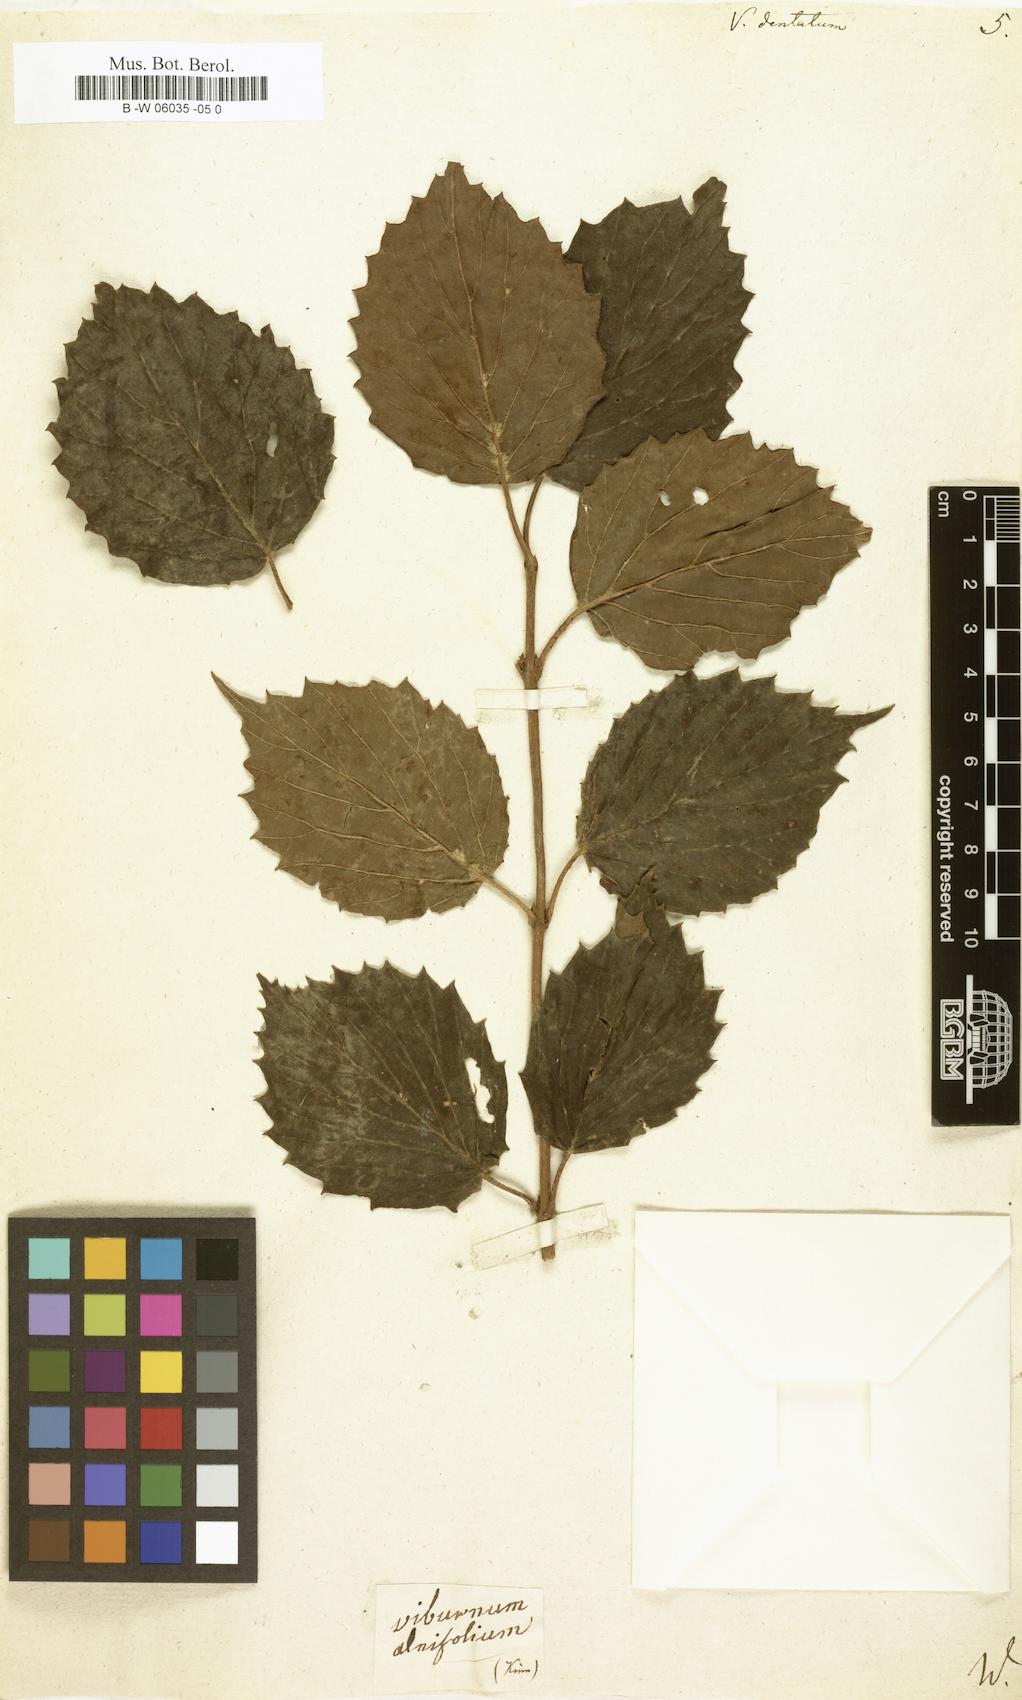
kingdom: Plantae
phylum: Tracheophyta
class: Magnoliopsida
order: Dipsacales
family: Viburnaceae
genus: Viburnum
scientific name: Viburnum dentatum
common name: Arrow-wood
